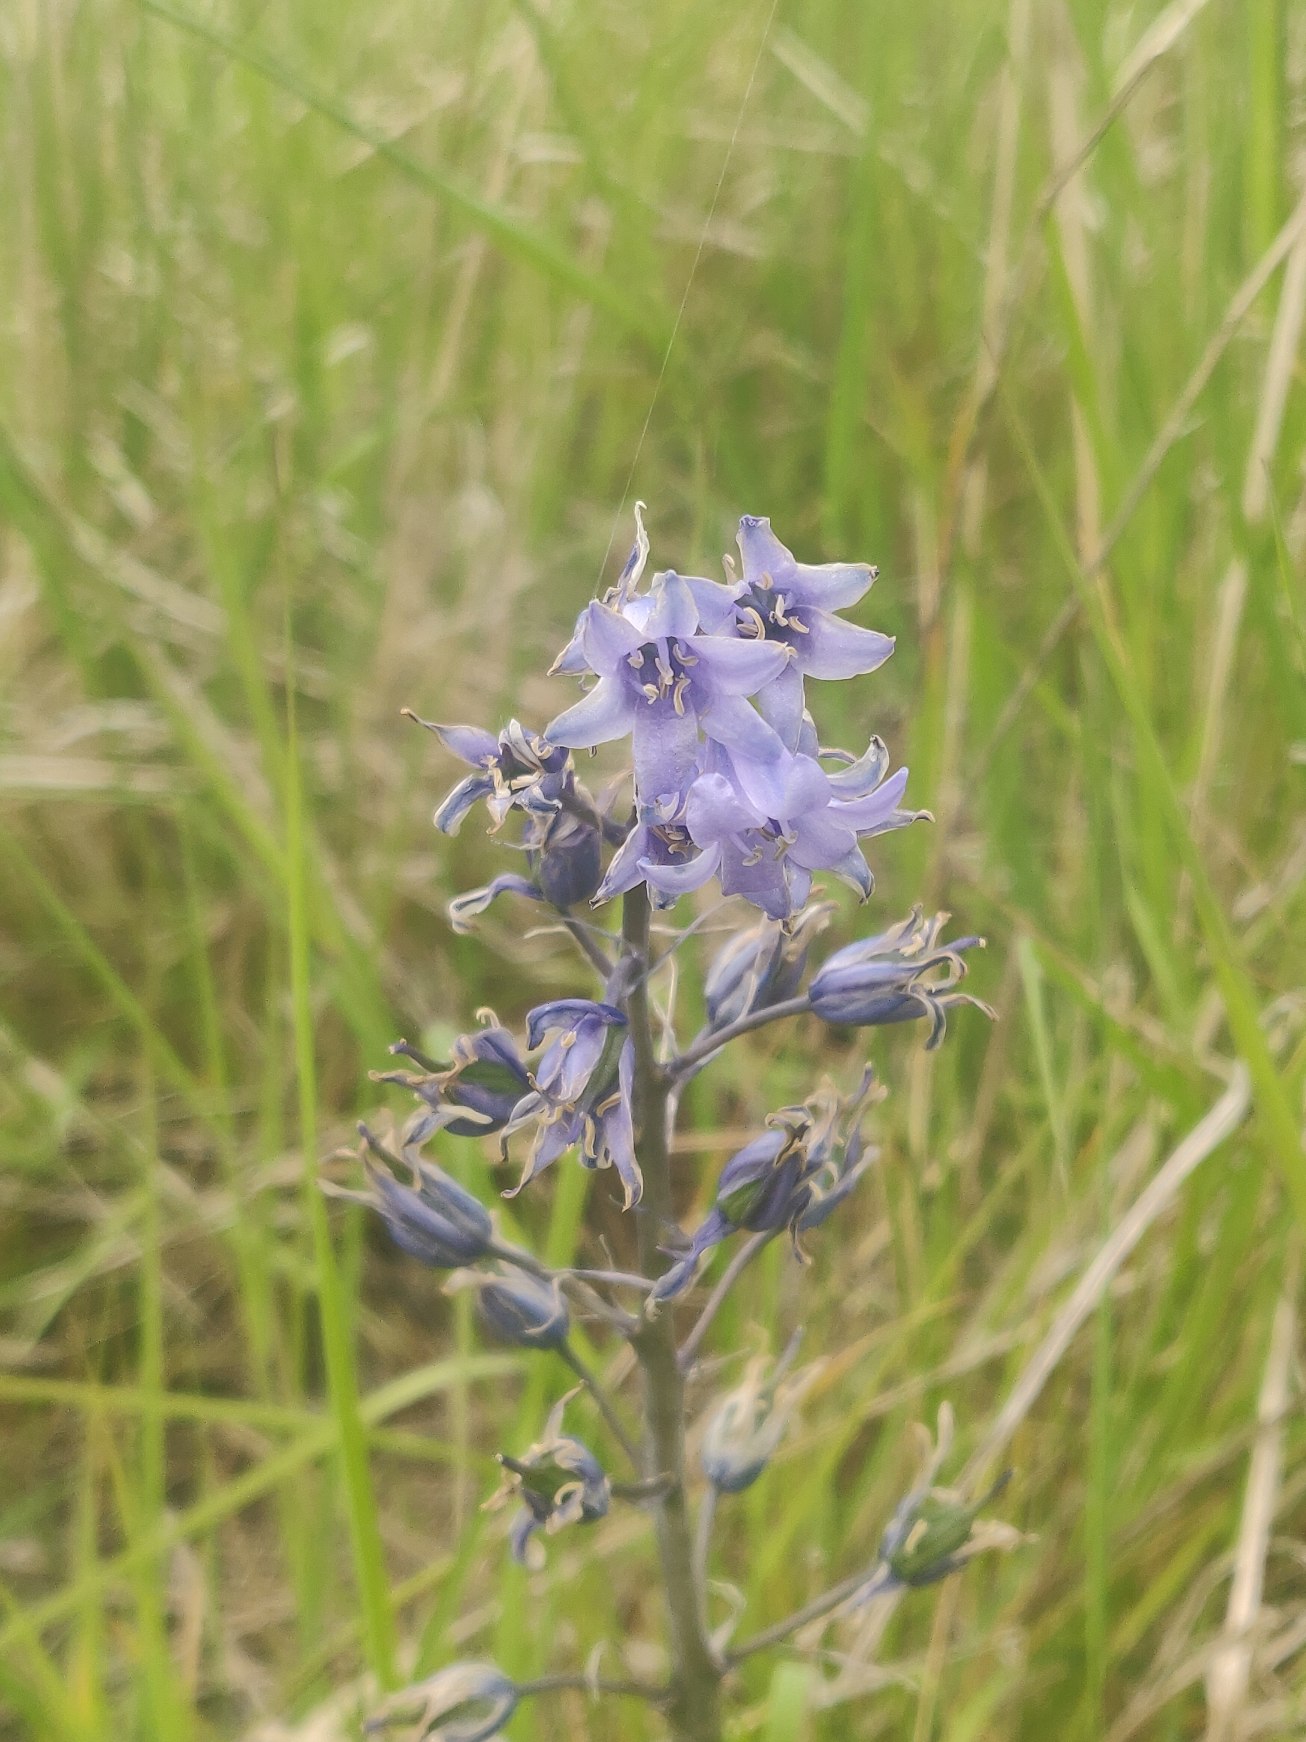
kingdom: Plantae
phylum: Tracheophyta
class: Liliopsida
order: Asparagales
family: Asparagaceae
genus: Hyacinthoides
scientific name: Hyacinthoides massartiana
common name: Hybrid-klokkeskilla
